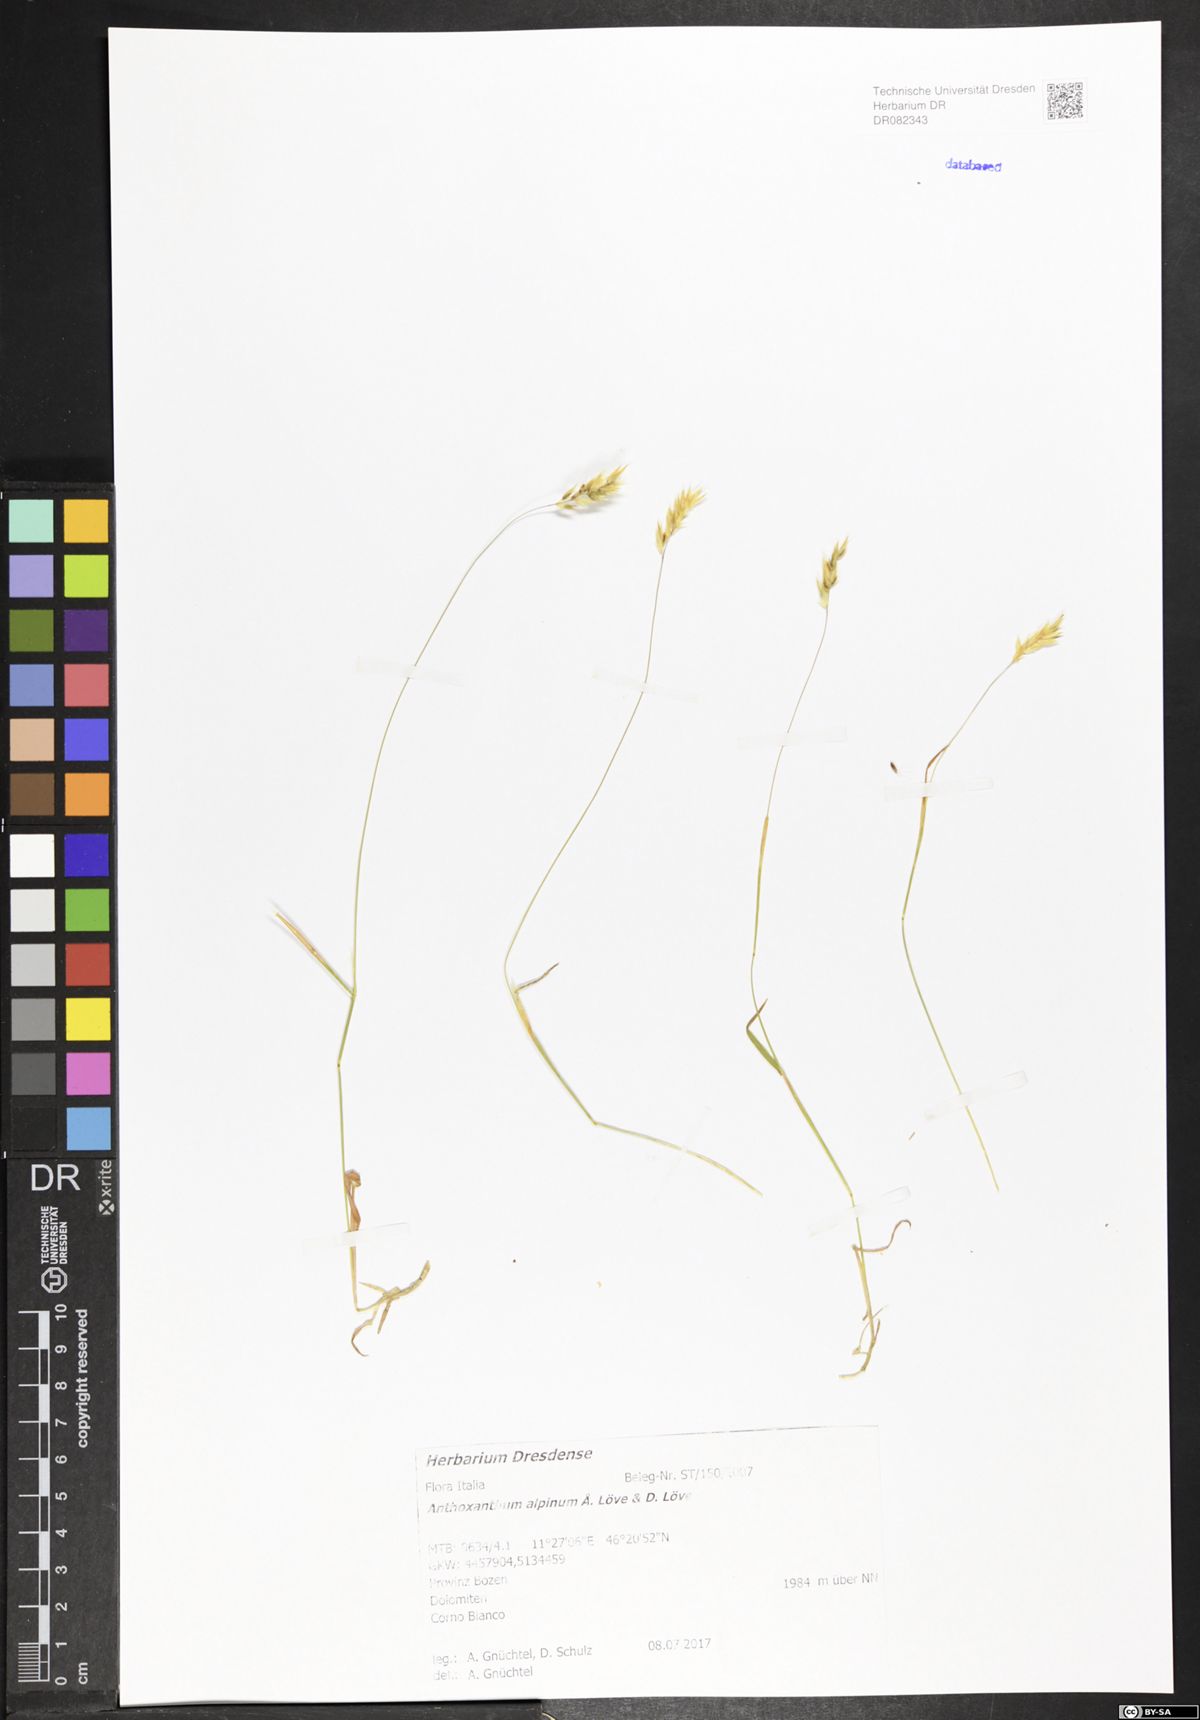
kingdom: Plantae
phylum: Tracheophyta
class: Liliopsida
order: Poales
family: Poaceae
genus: Anthoxanthum
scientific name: Anthoxanthum nipponicum
